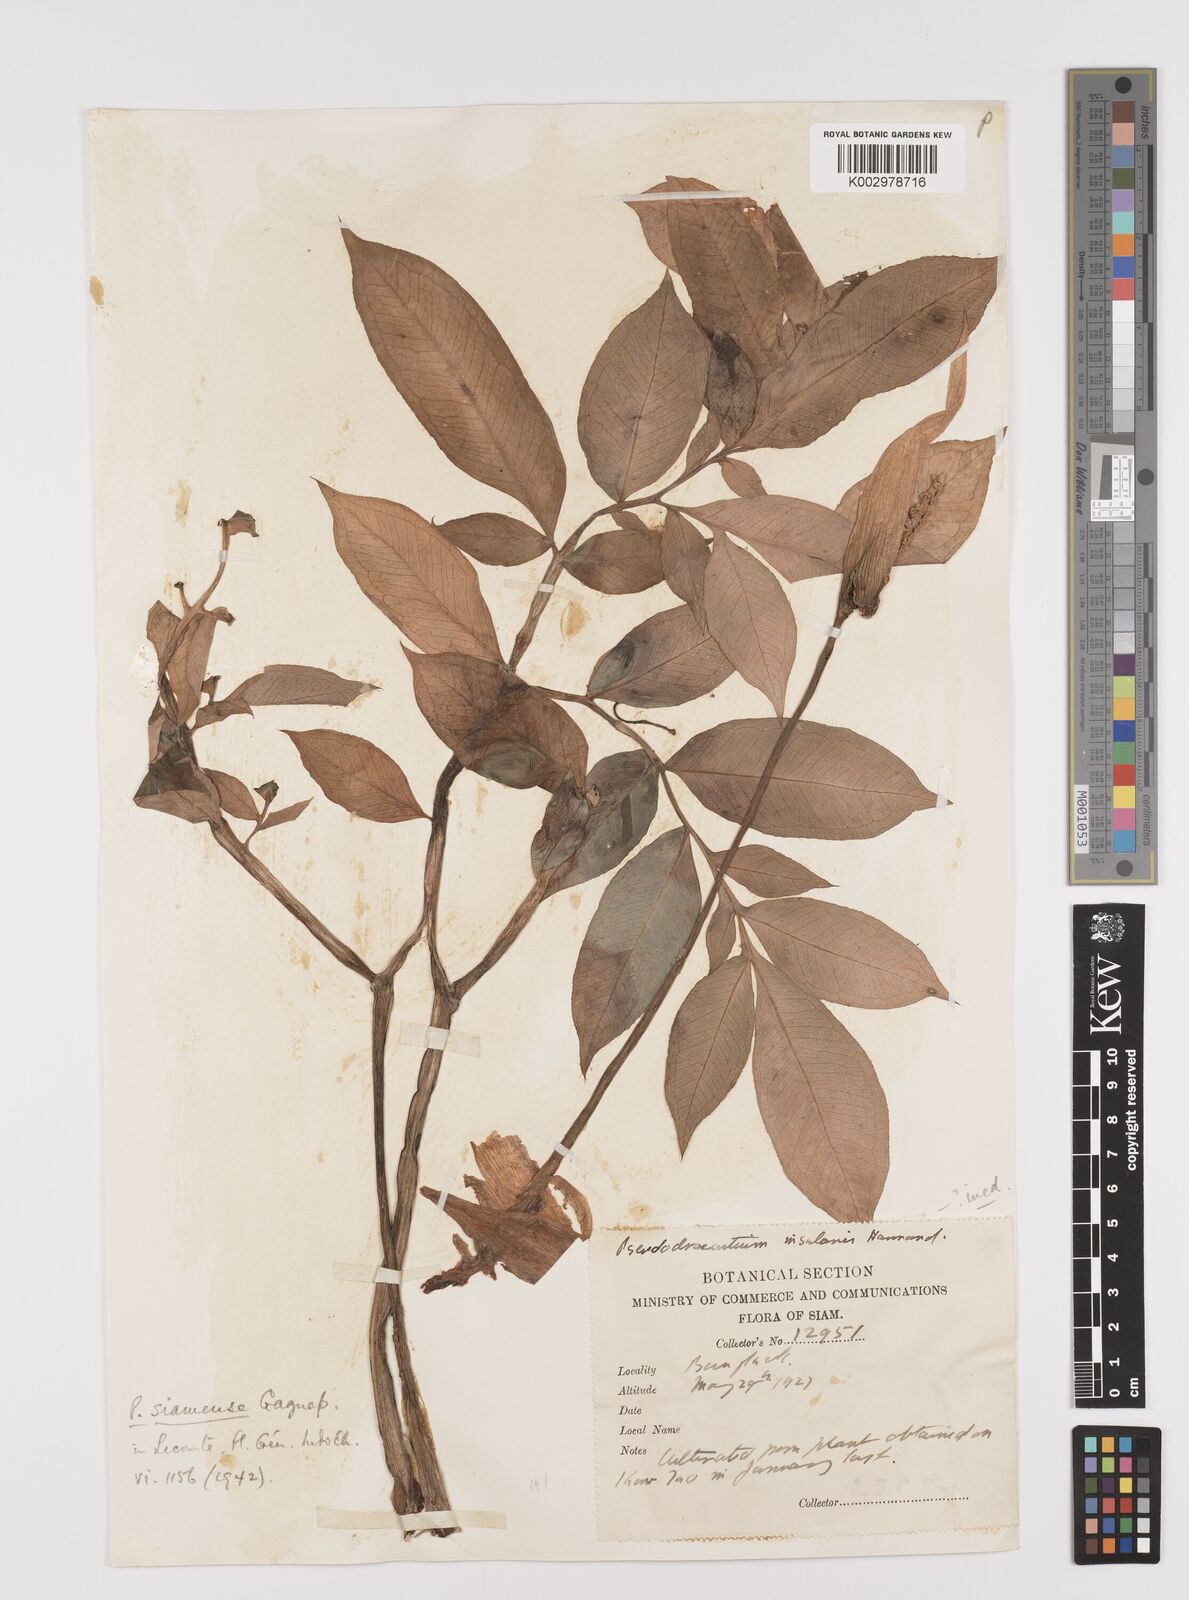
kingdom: Plantae
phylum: Tracheophyta
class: Liliopsida
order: Alismatales
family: Araceae
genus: Amorphophallus
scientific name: Amorphophallus harmandii
